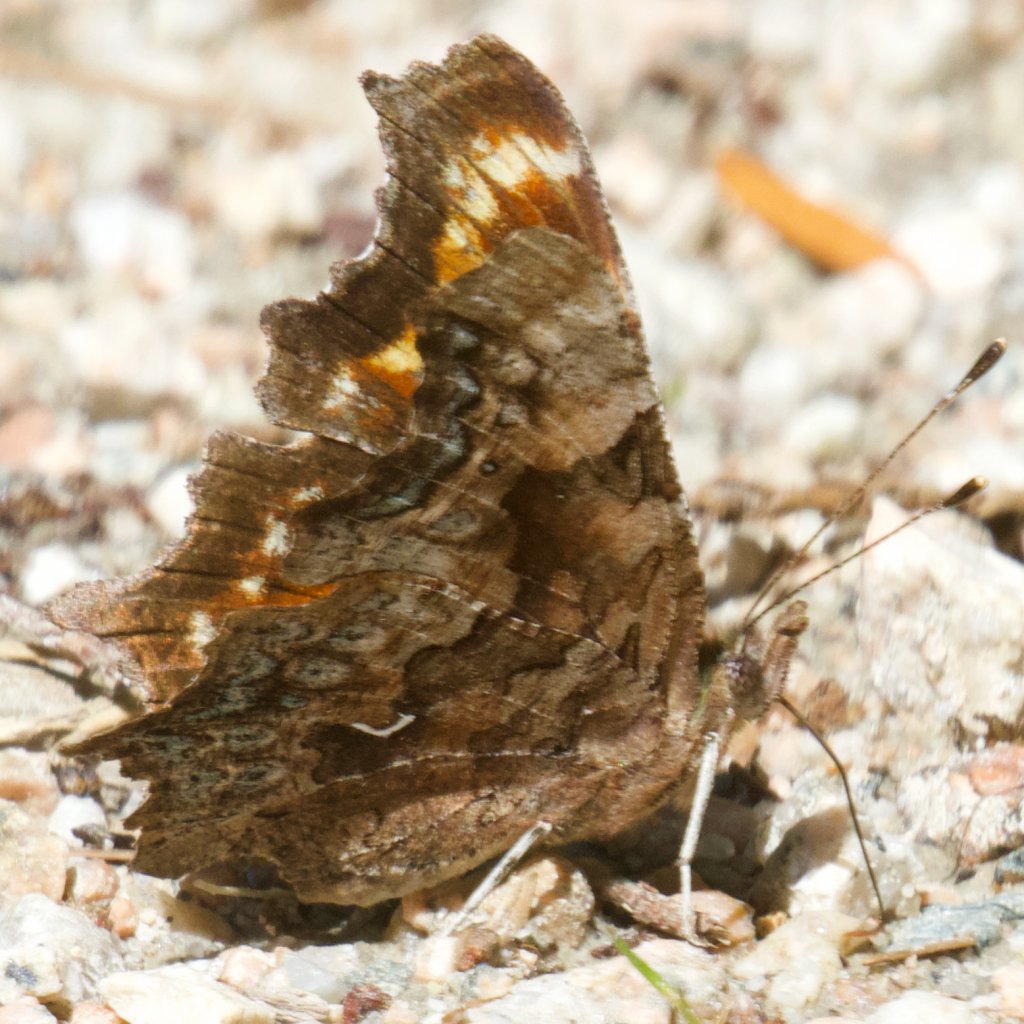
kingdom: Animalia
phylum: Arthropoda
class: Insecta
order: Lepidoptera
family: Nymphalidae
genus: Polygonia
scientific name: Polygonia faunus
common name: Green Comma
